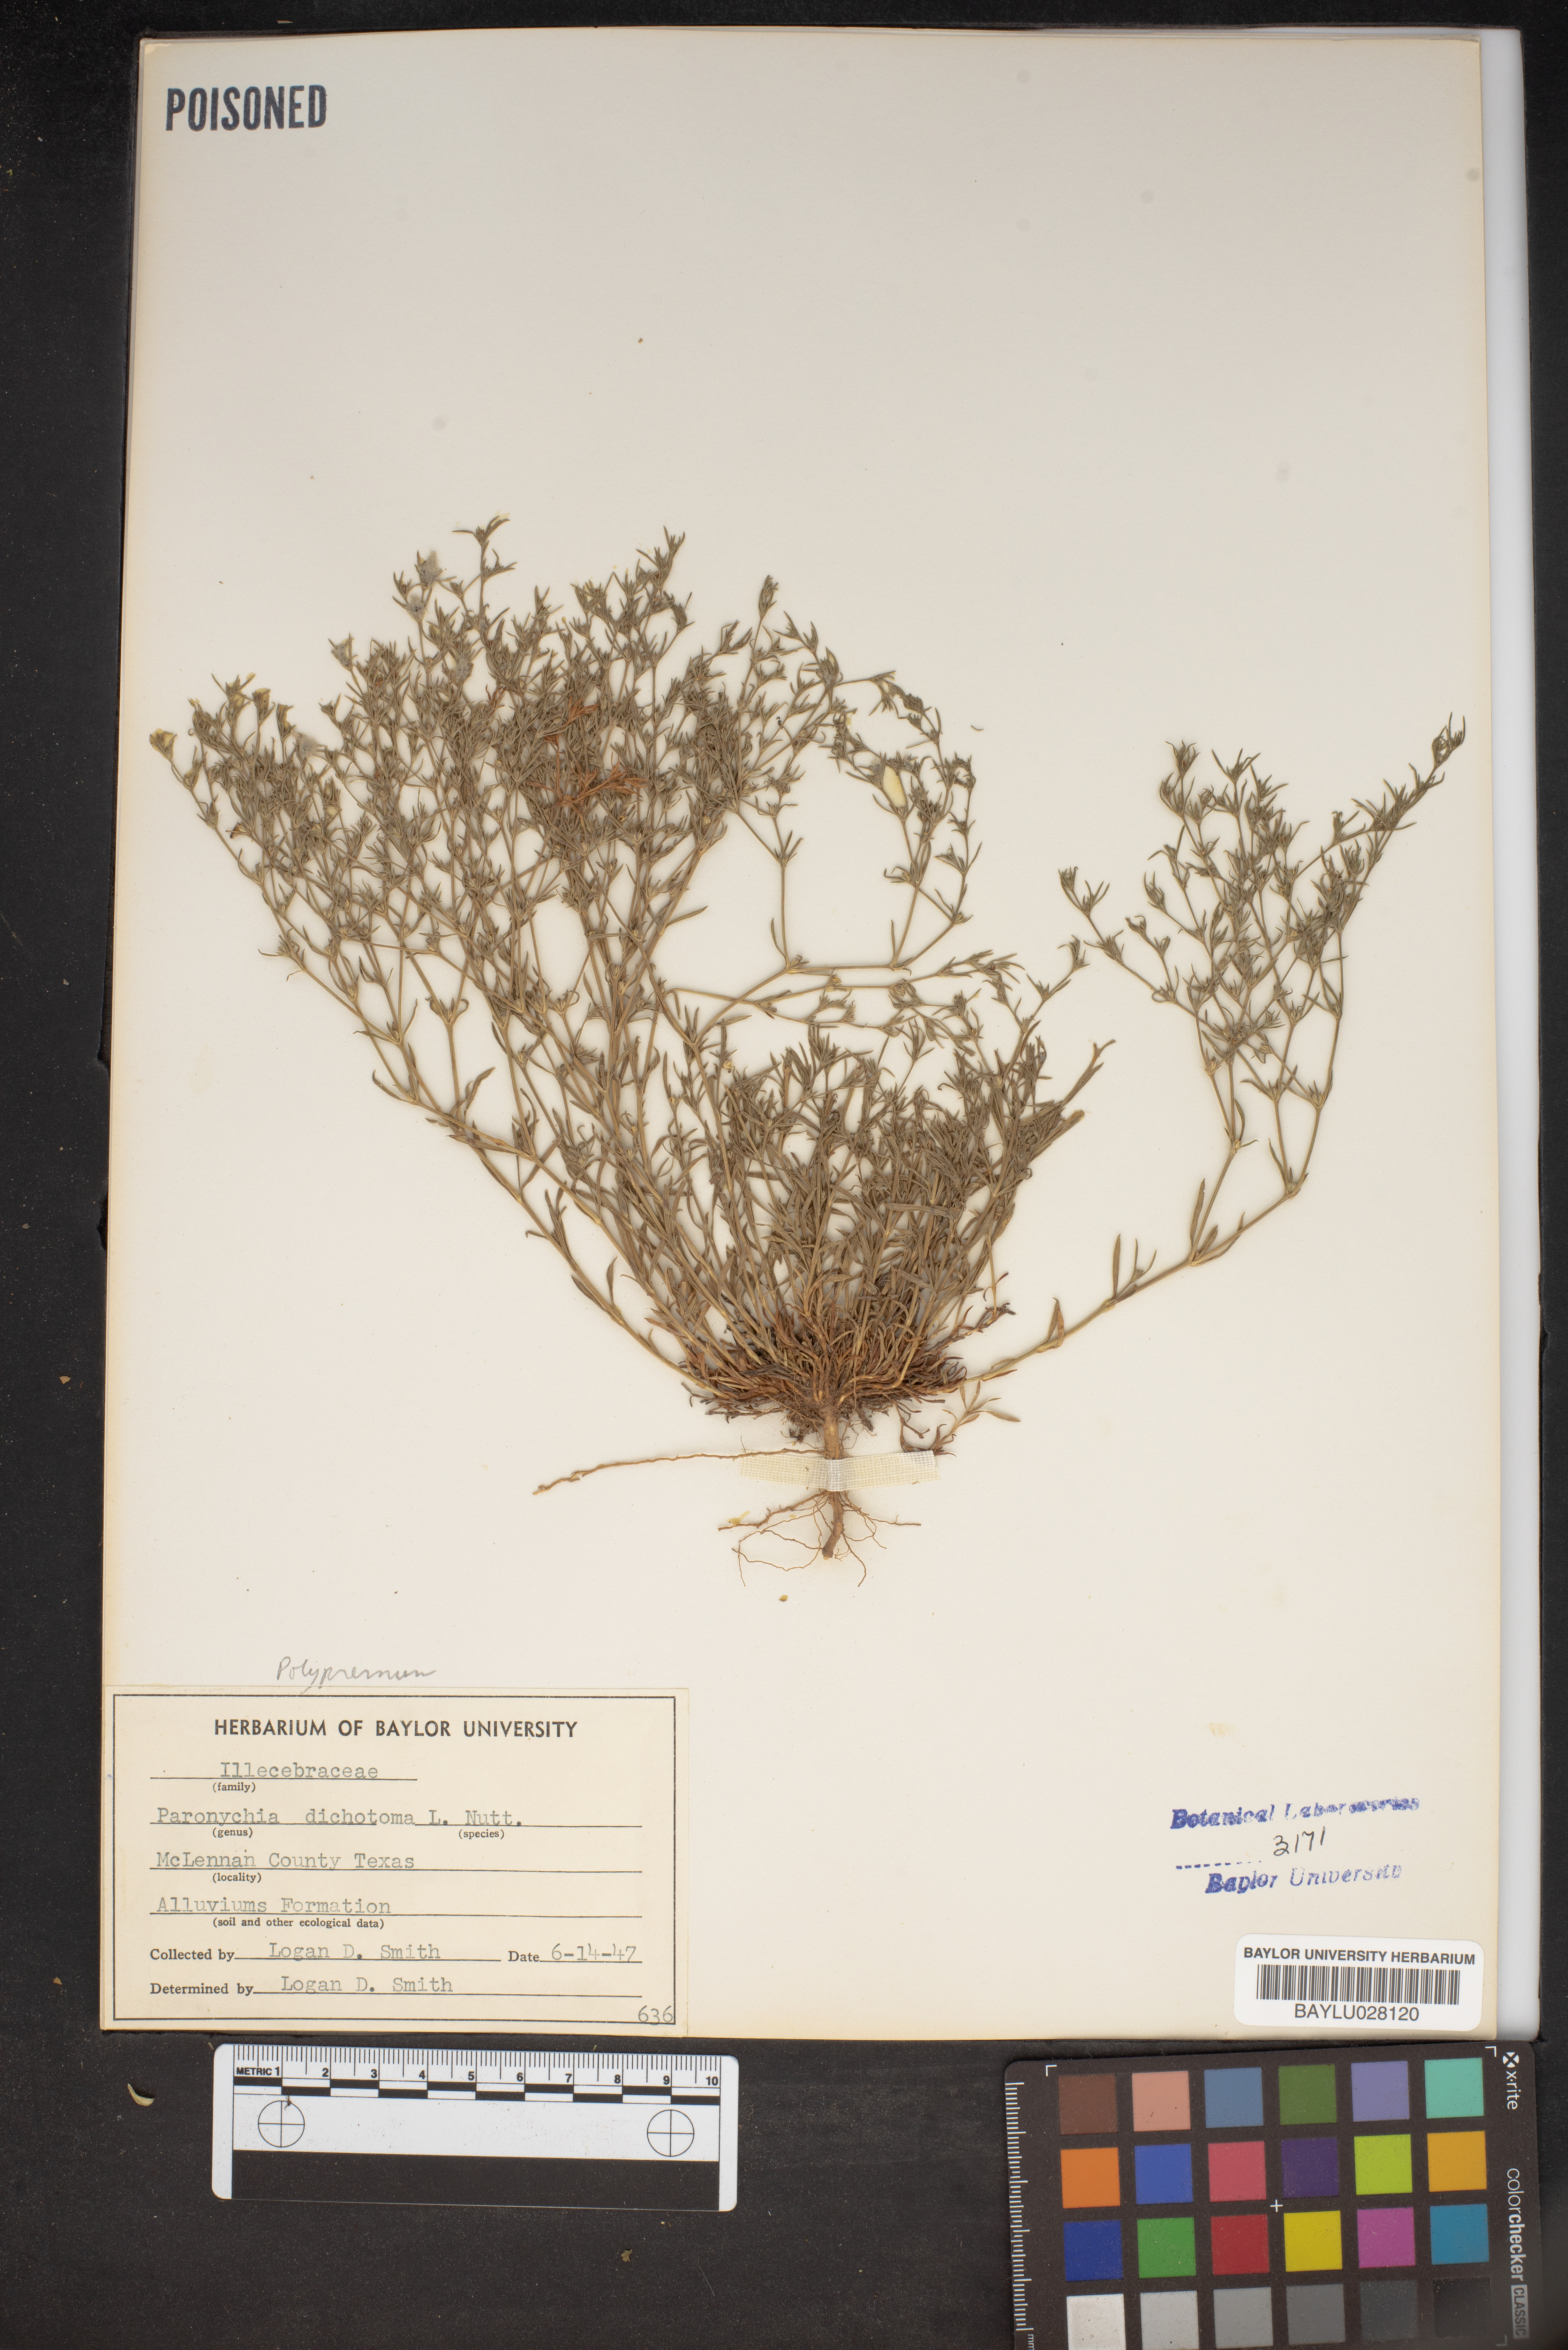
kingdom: Plantae
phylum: Tracheophyta
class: Magnoliopsida
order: Caryophyllales
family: Caryophyllaceae
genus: Paronychia
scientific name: Paronychia canadensis
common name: Canada forked nailwort
